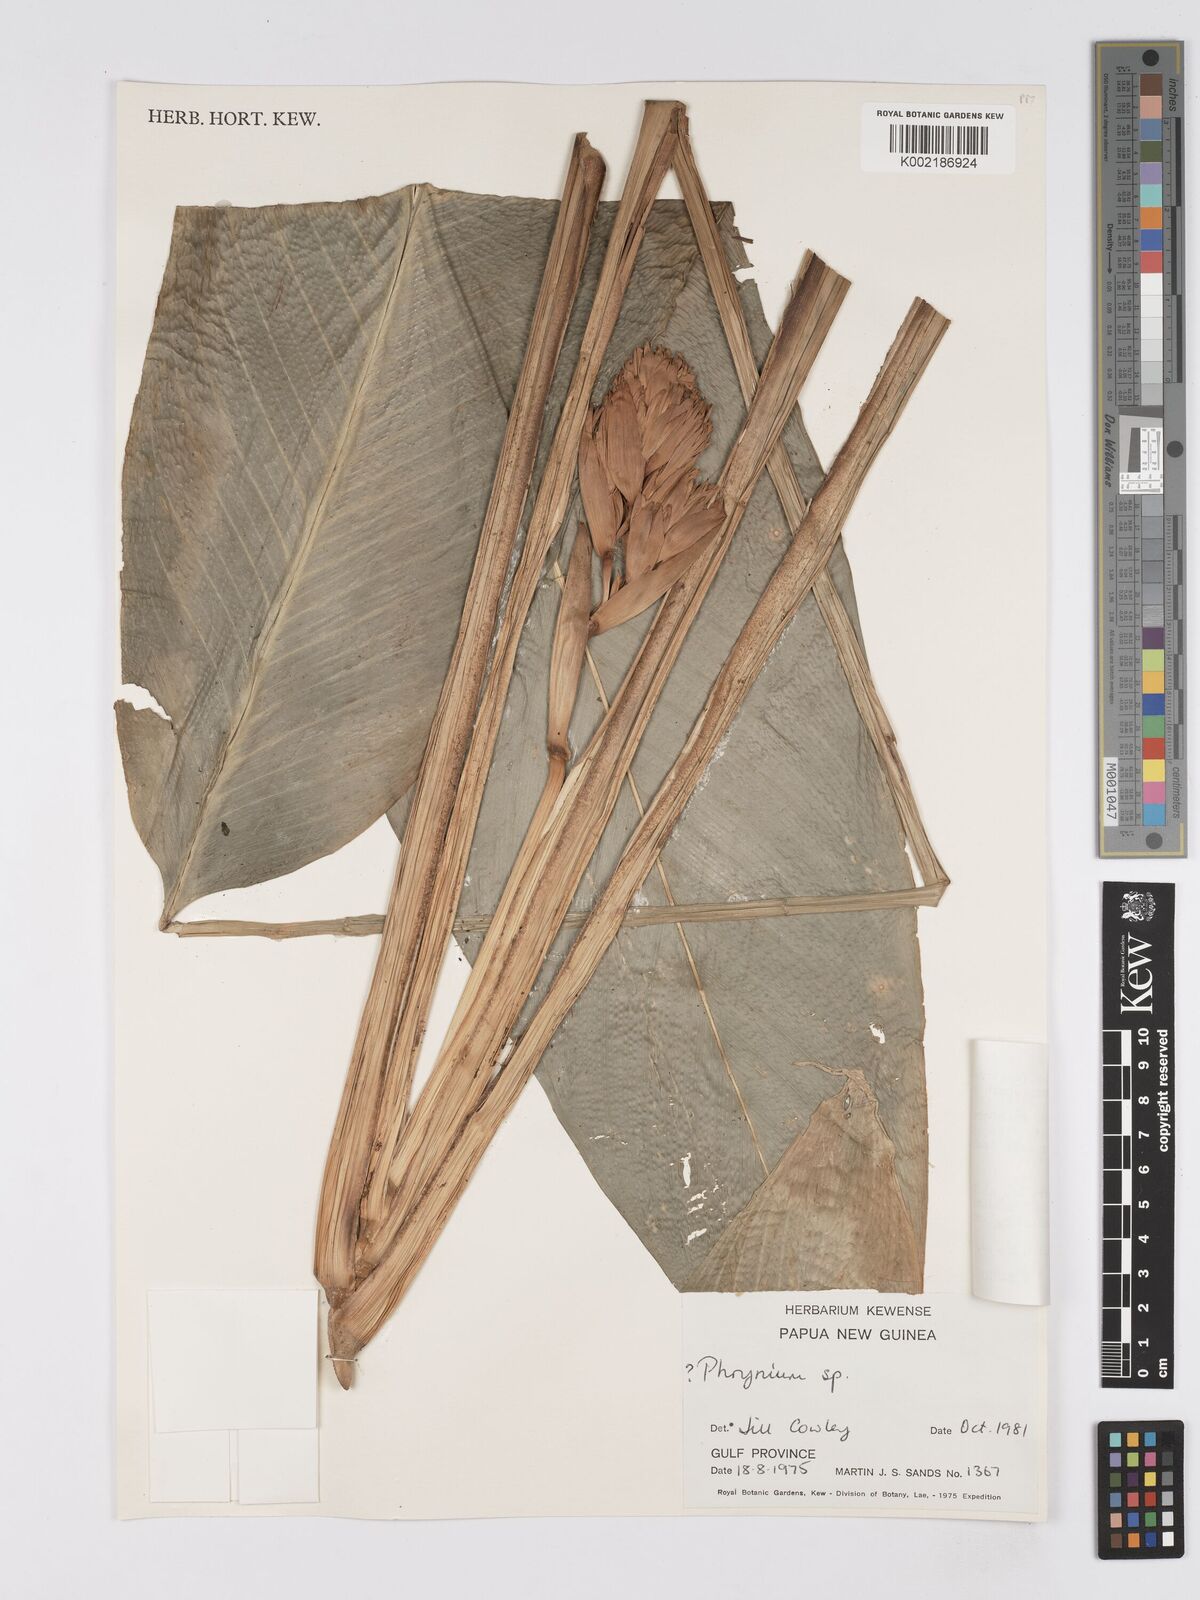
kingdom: Plantae
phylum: Tracheophyta
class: Liliopsida
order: Zingiberales
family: Marantaceae
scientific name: Marantaceae
